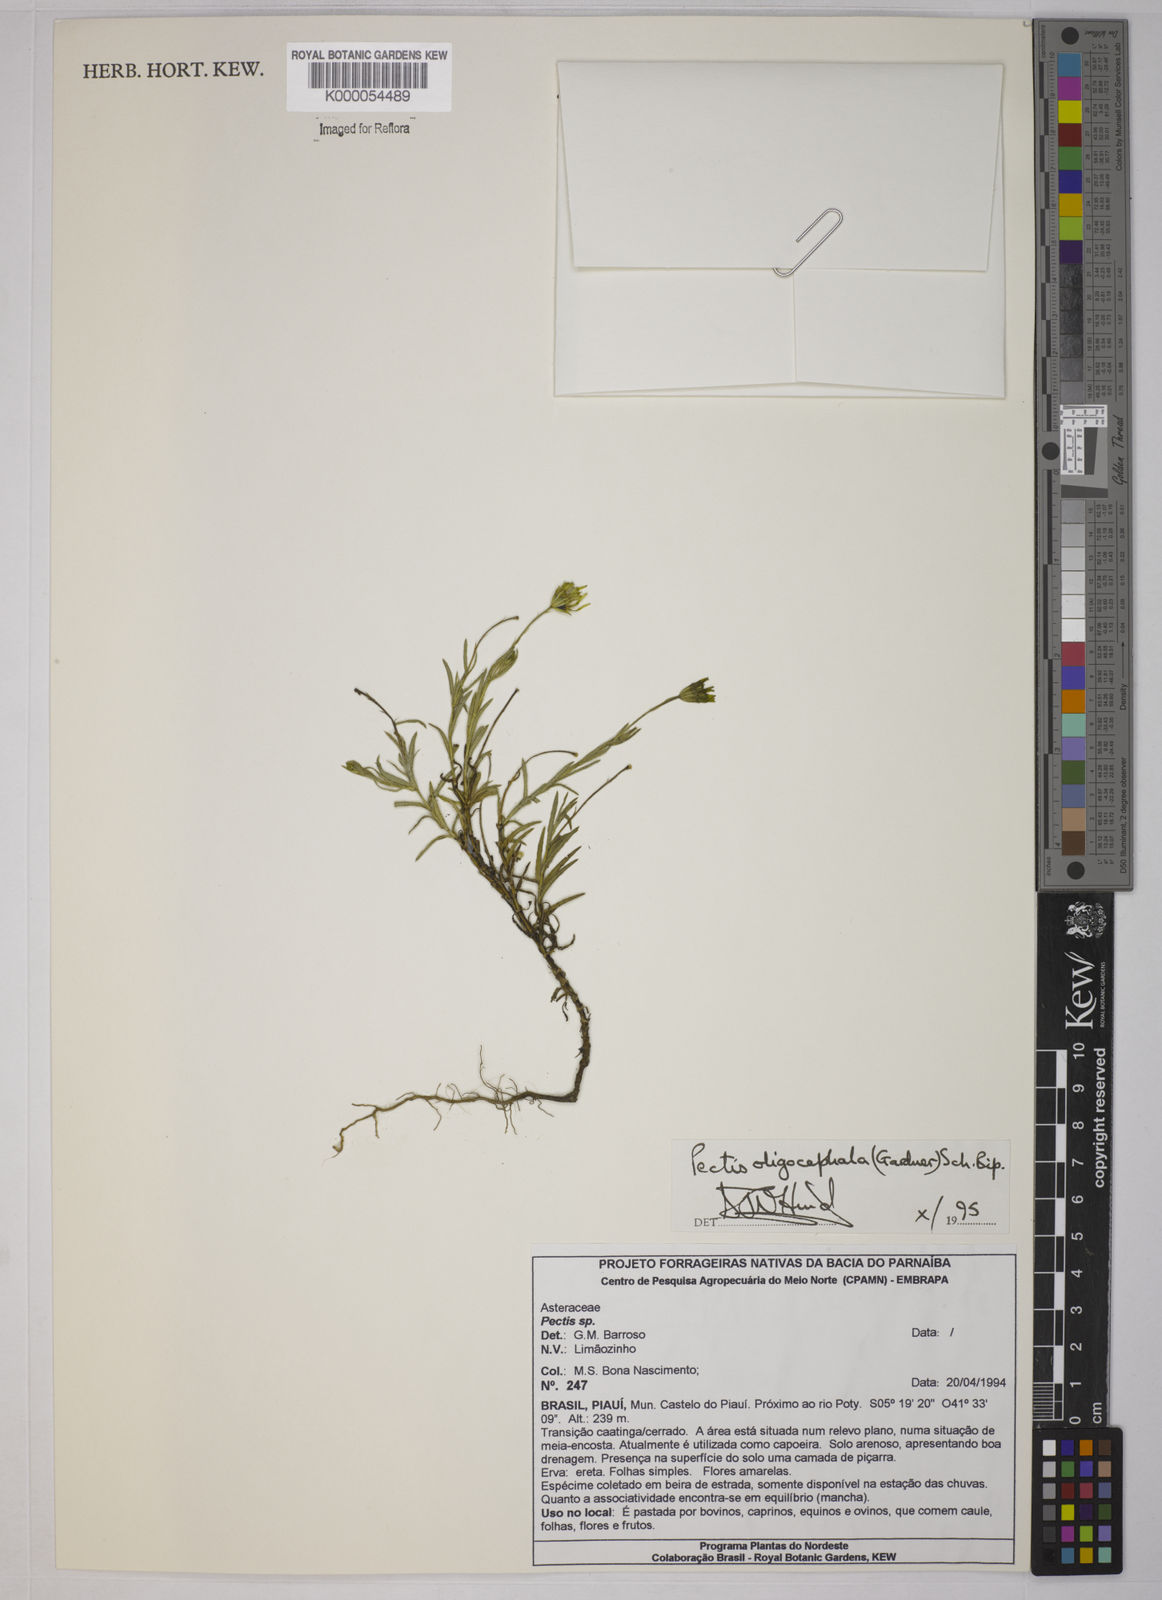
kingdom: Plantae
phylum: Tracheophyta
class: Magnoliopsida
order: Asterales
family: Asteraceae
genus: Pectis
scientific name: Pectis oligocephala
